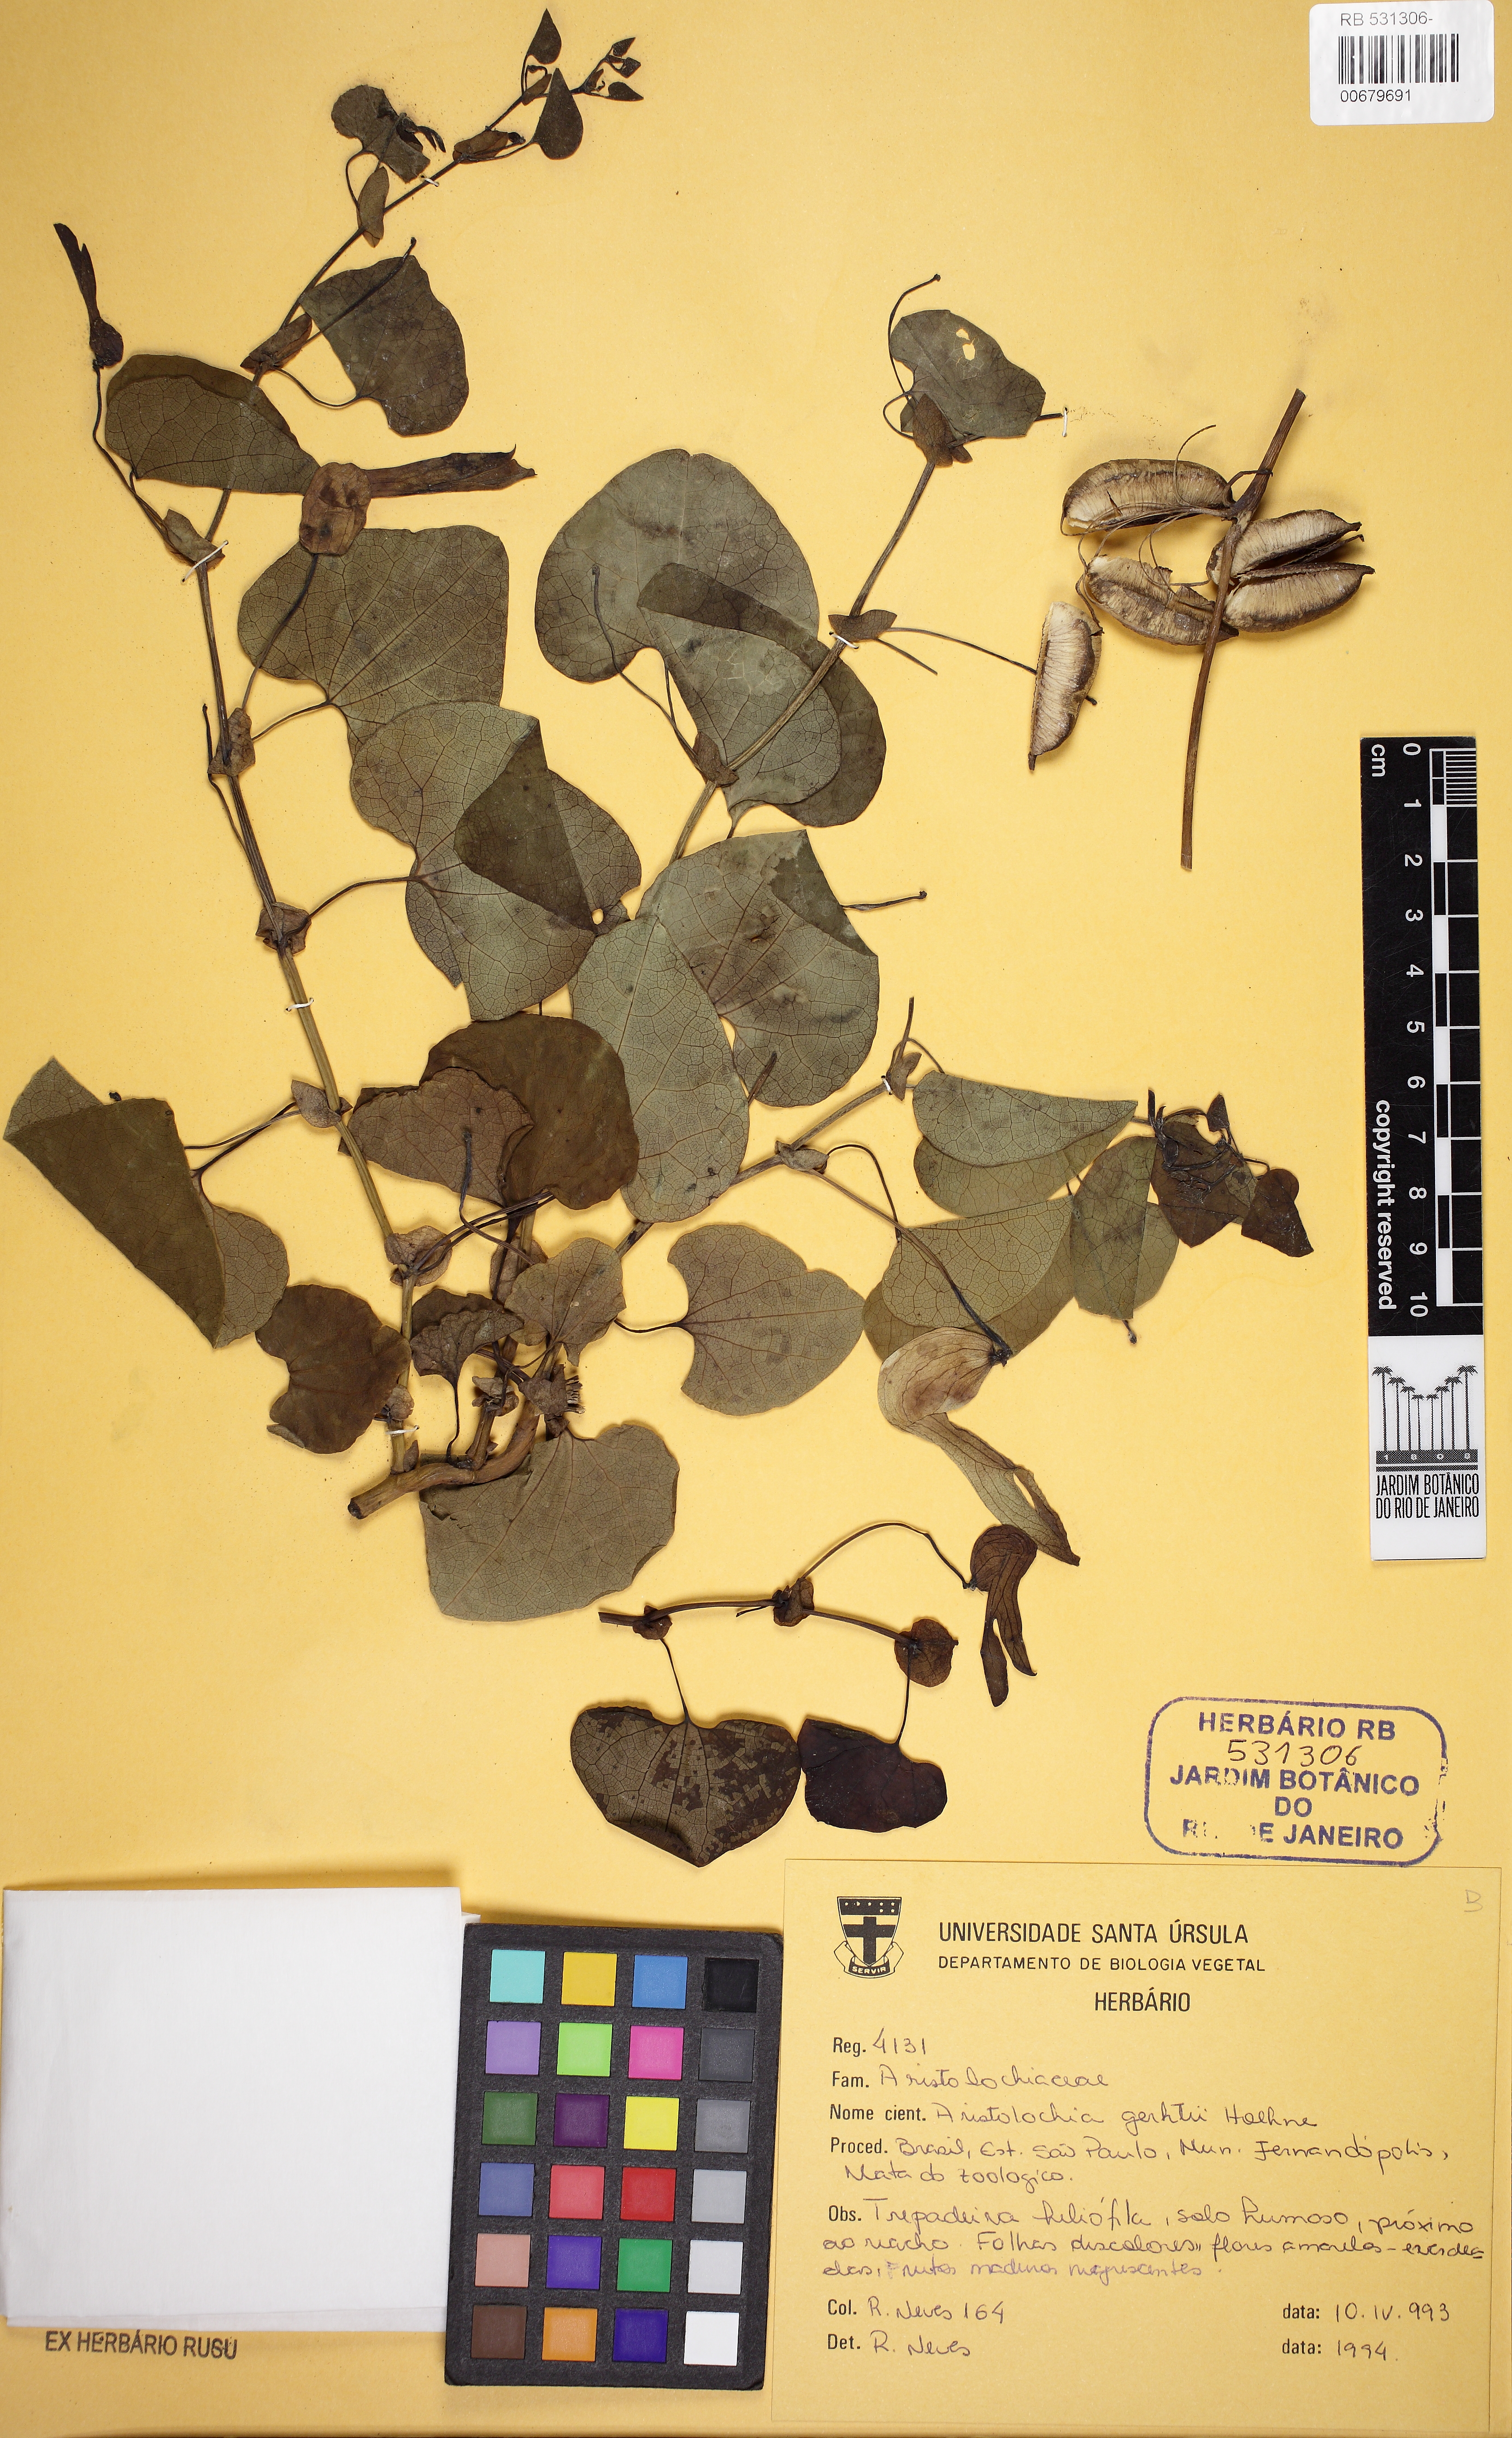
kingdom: Plantae
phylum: Tracheophyta
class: Magnoliopsida
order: Piperales
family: Aristolochiaceae
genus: Aristolochia
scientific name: Aristolochia gehrtii
